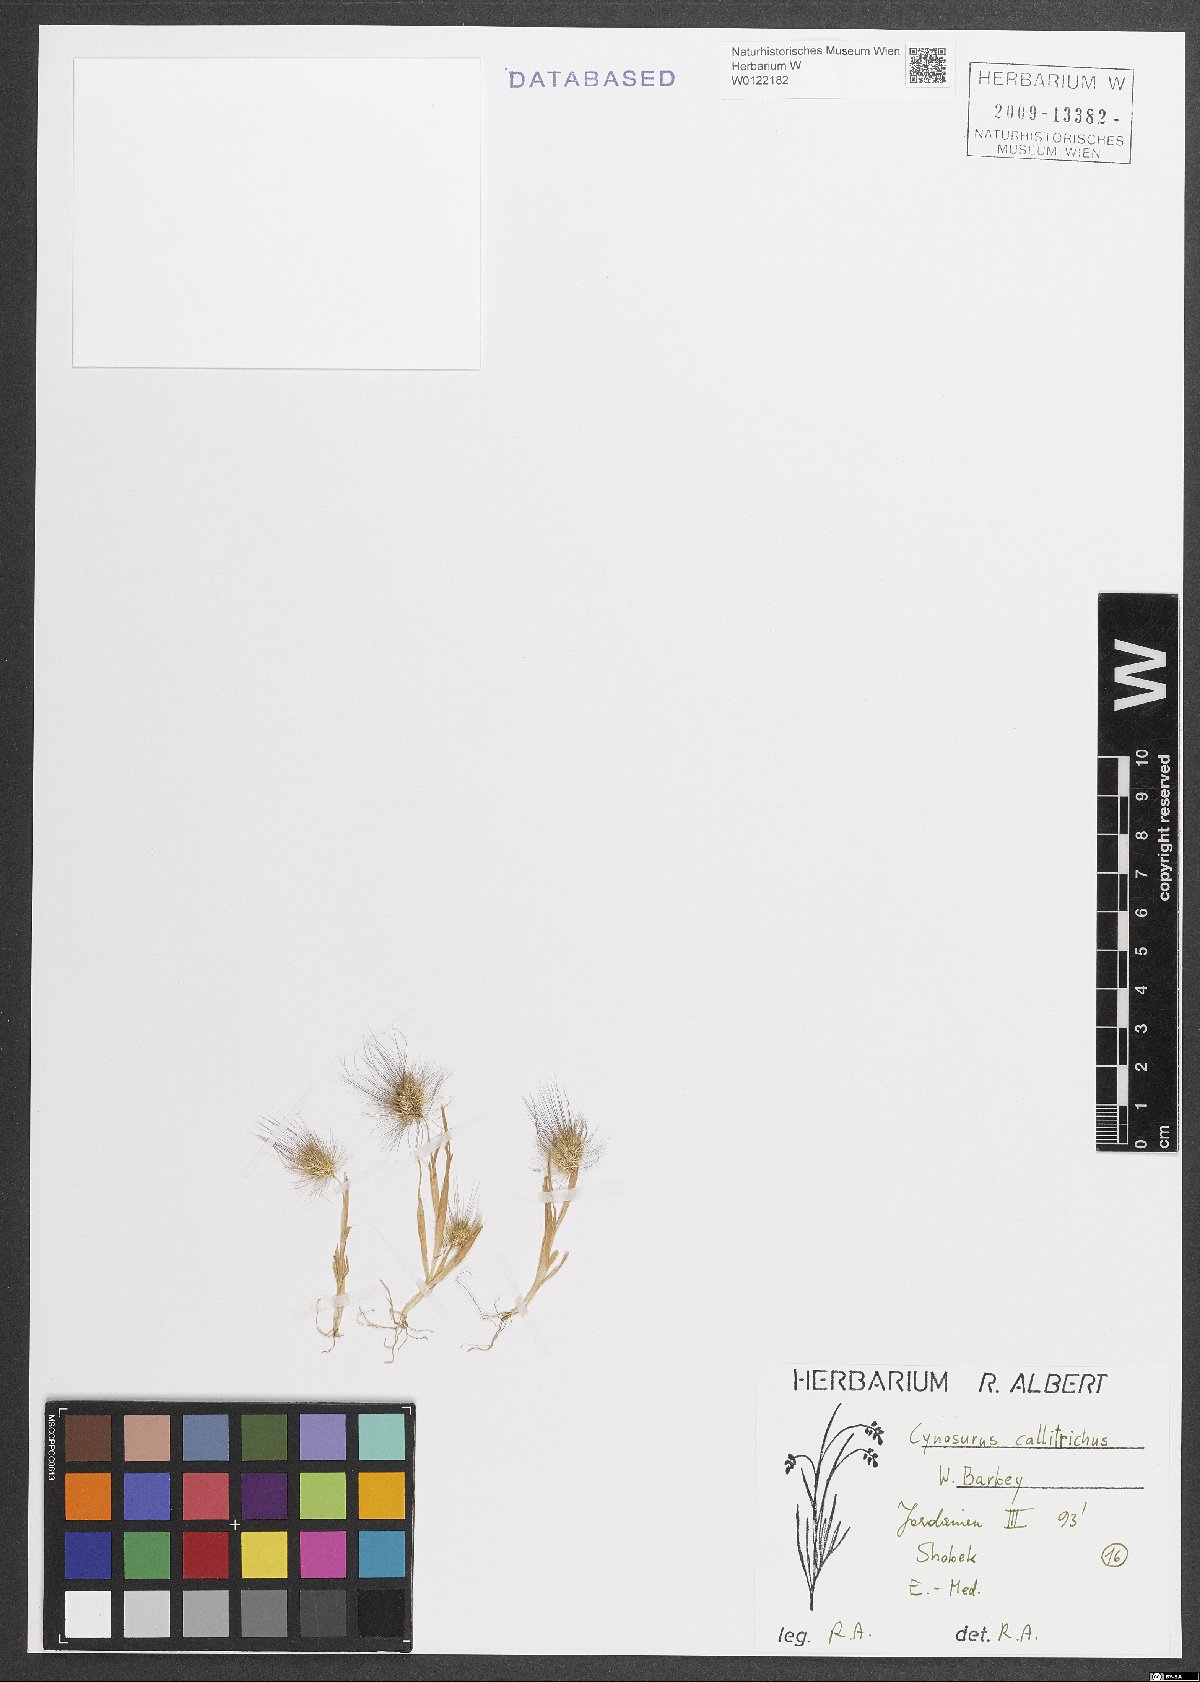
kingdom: Plantae
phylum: Tracheophyta
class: Liliopsida
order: Poales
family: Poaceae
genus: Cynosurus
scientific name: Cynosurus coloratus
